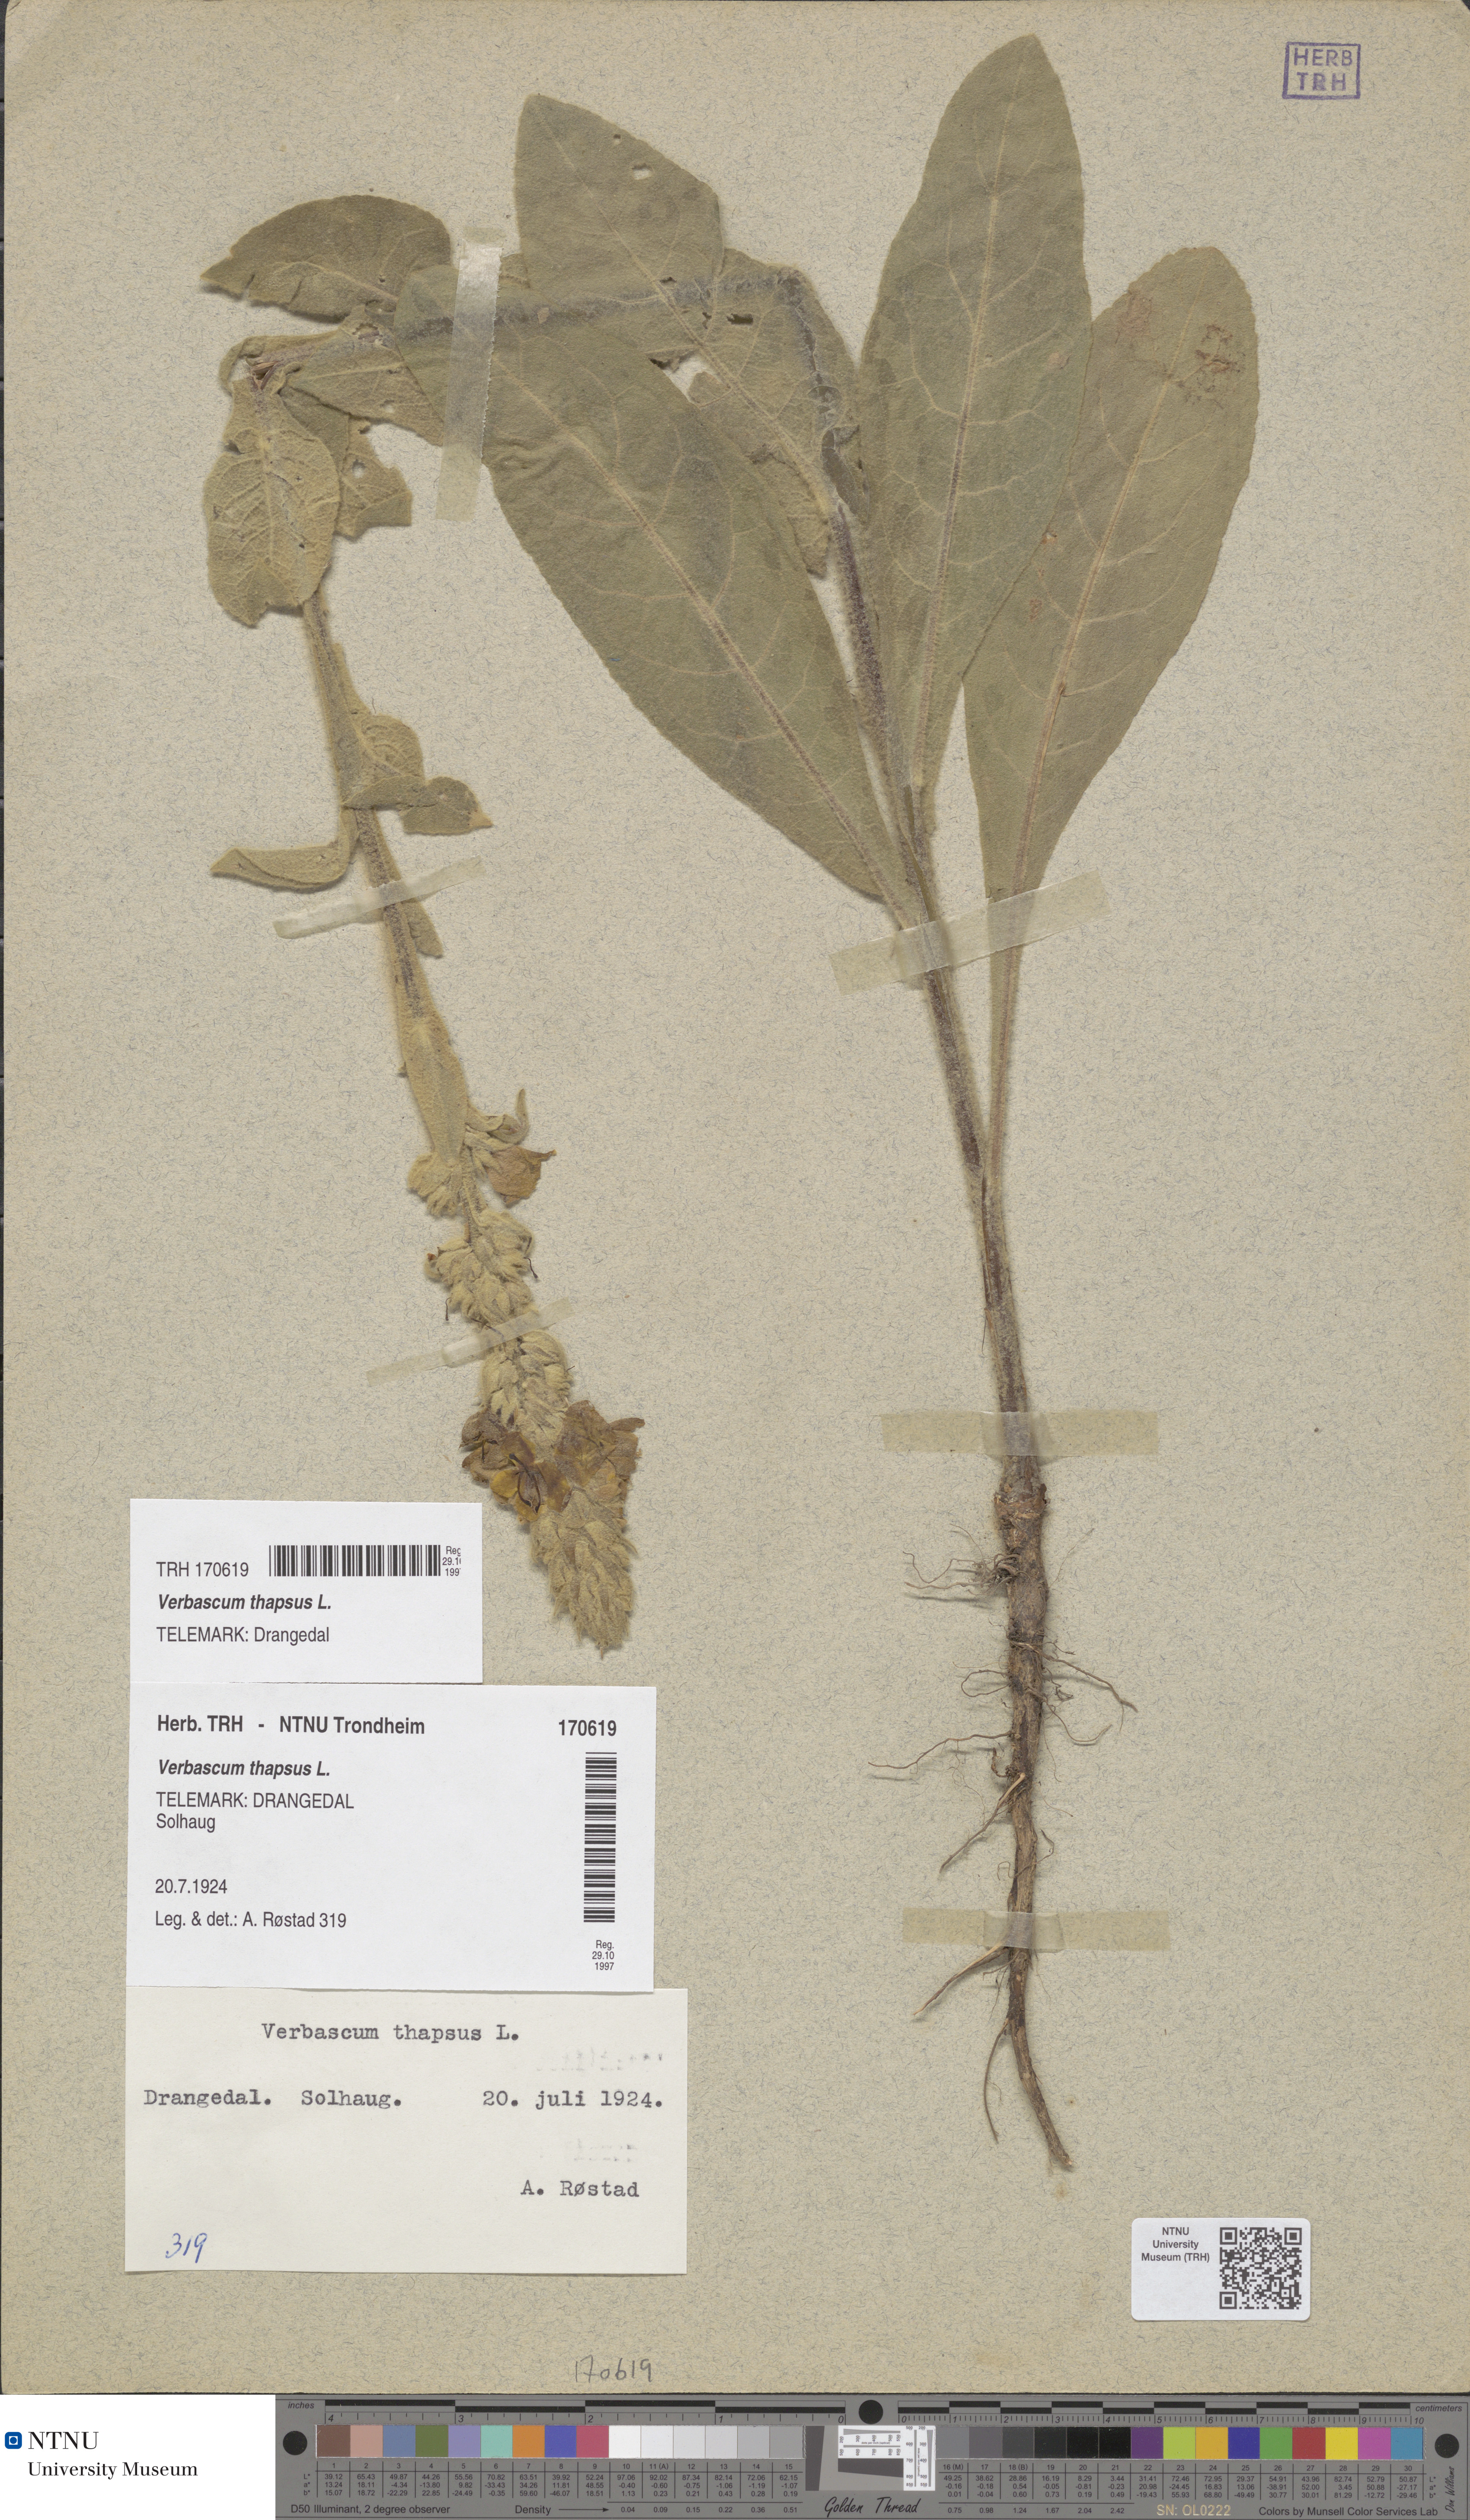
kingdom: Plantae
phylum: Tracheophyta
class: Magnoliopsida
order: Lamiales
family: Scrophulariaceae
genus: Verbascum
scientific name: Verbascum thapsus
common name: Common mullein
